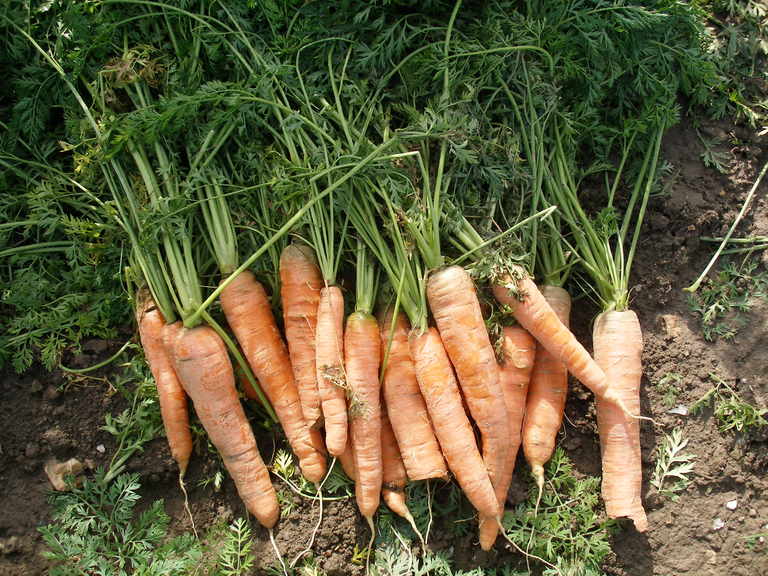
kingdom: Plantae
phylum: Tracheophyta
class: Magnoliopsida
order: Apiales
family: Apiaceae
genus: Daucus
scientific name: Daucus carota
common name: Wild carrot
